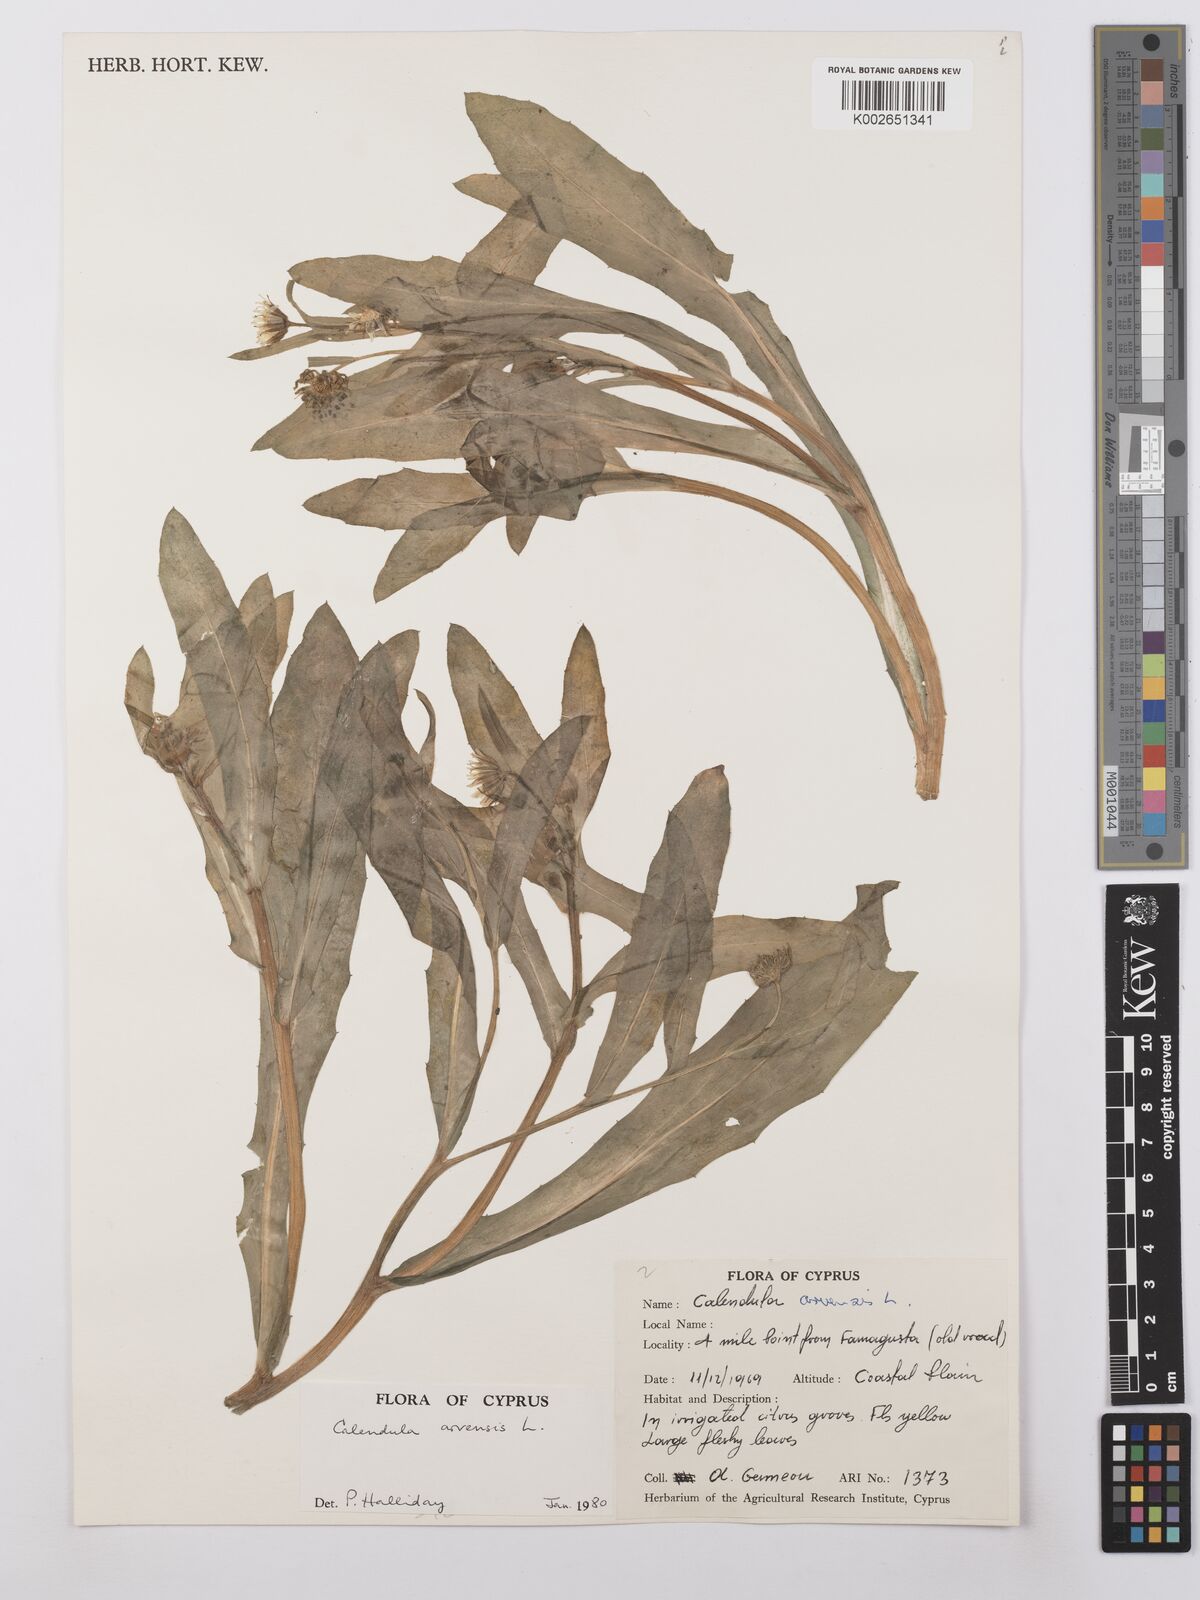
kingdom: Plantae
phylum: Tracheophyta
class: Magnoliopsida
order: Asterales
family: Asteraceae
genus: Calendula
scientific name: Calendula arvensis
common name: Field marigold
